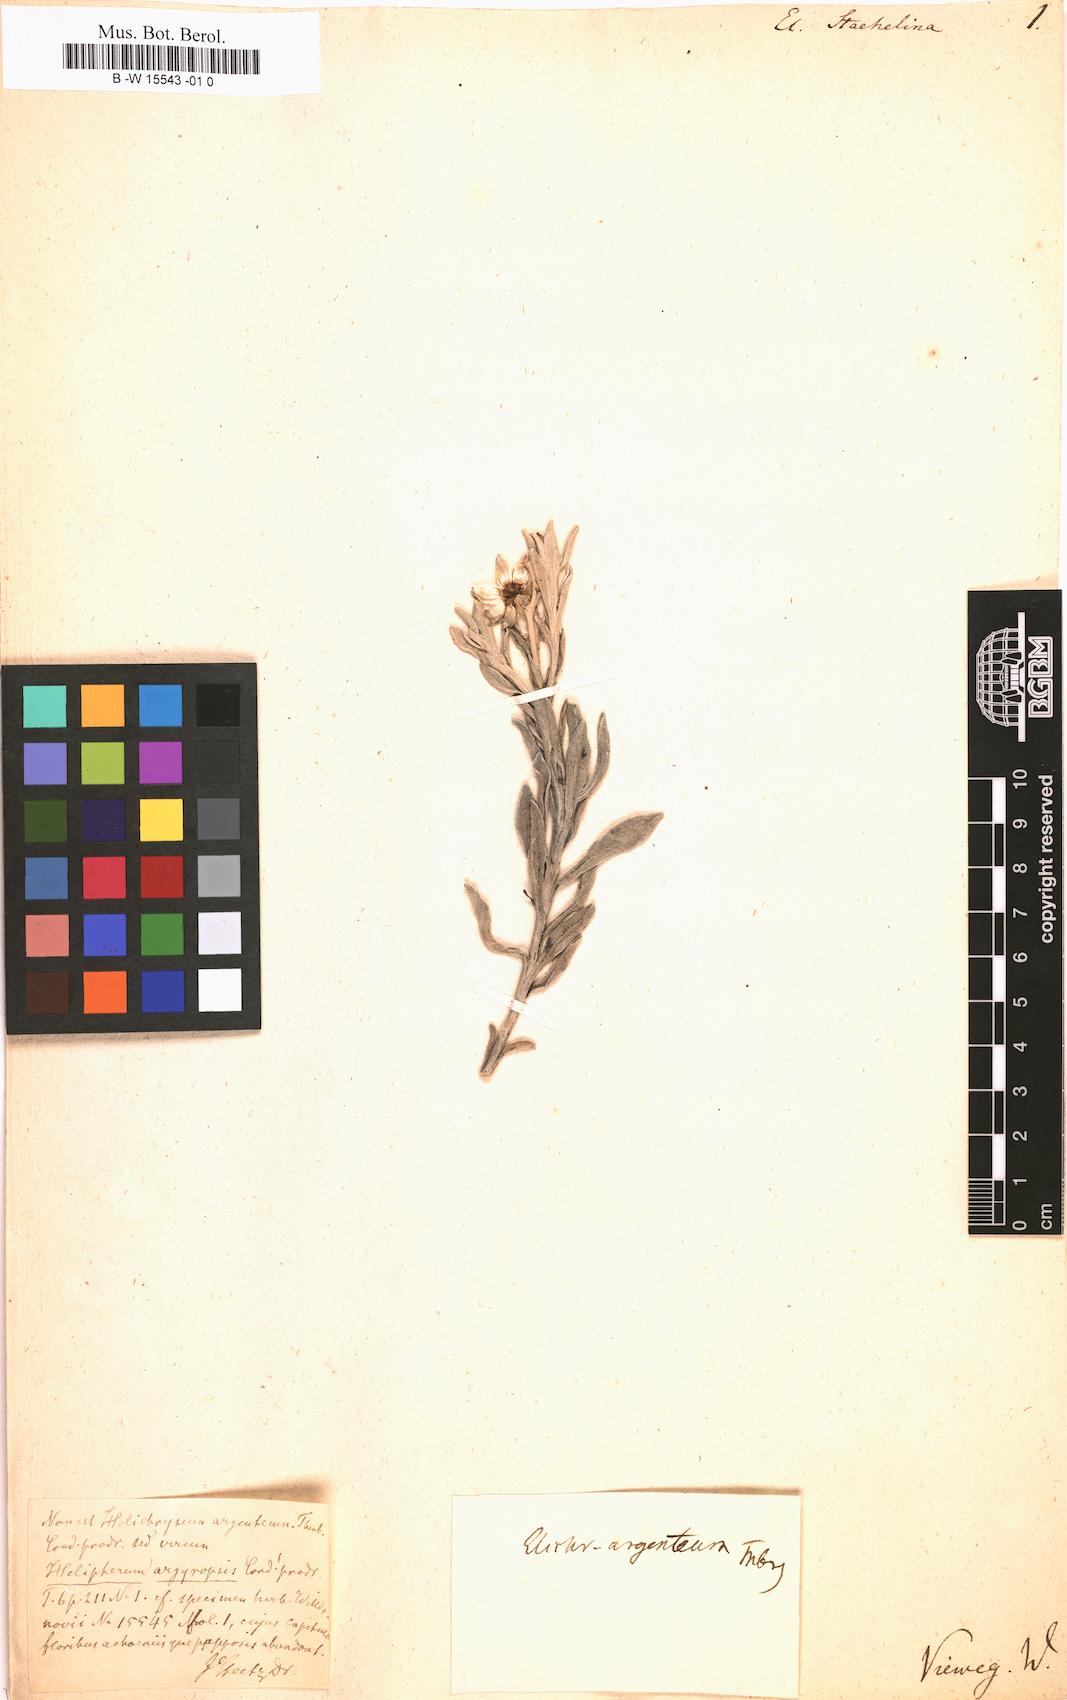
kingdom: Plantae
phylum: Tracheophyta
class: Magnoliopsida
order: Asterales
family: Asteraceae
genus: Helichrysum
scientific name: Helichrysum
